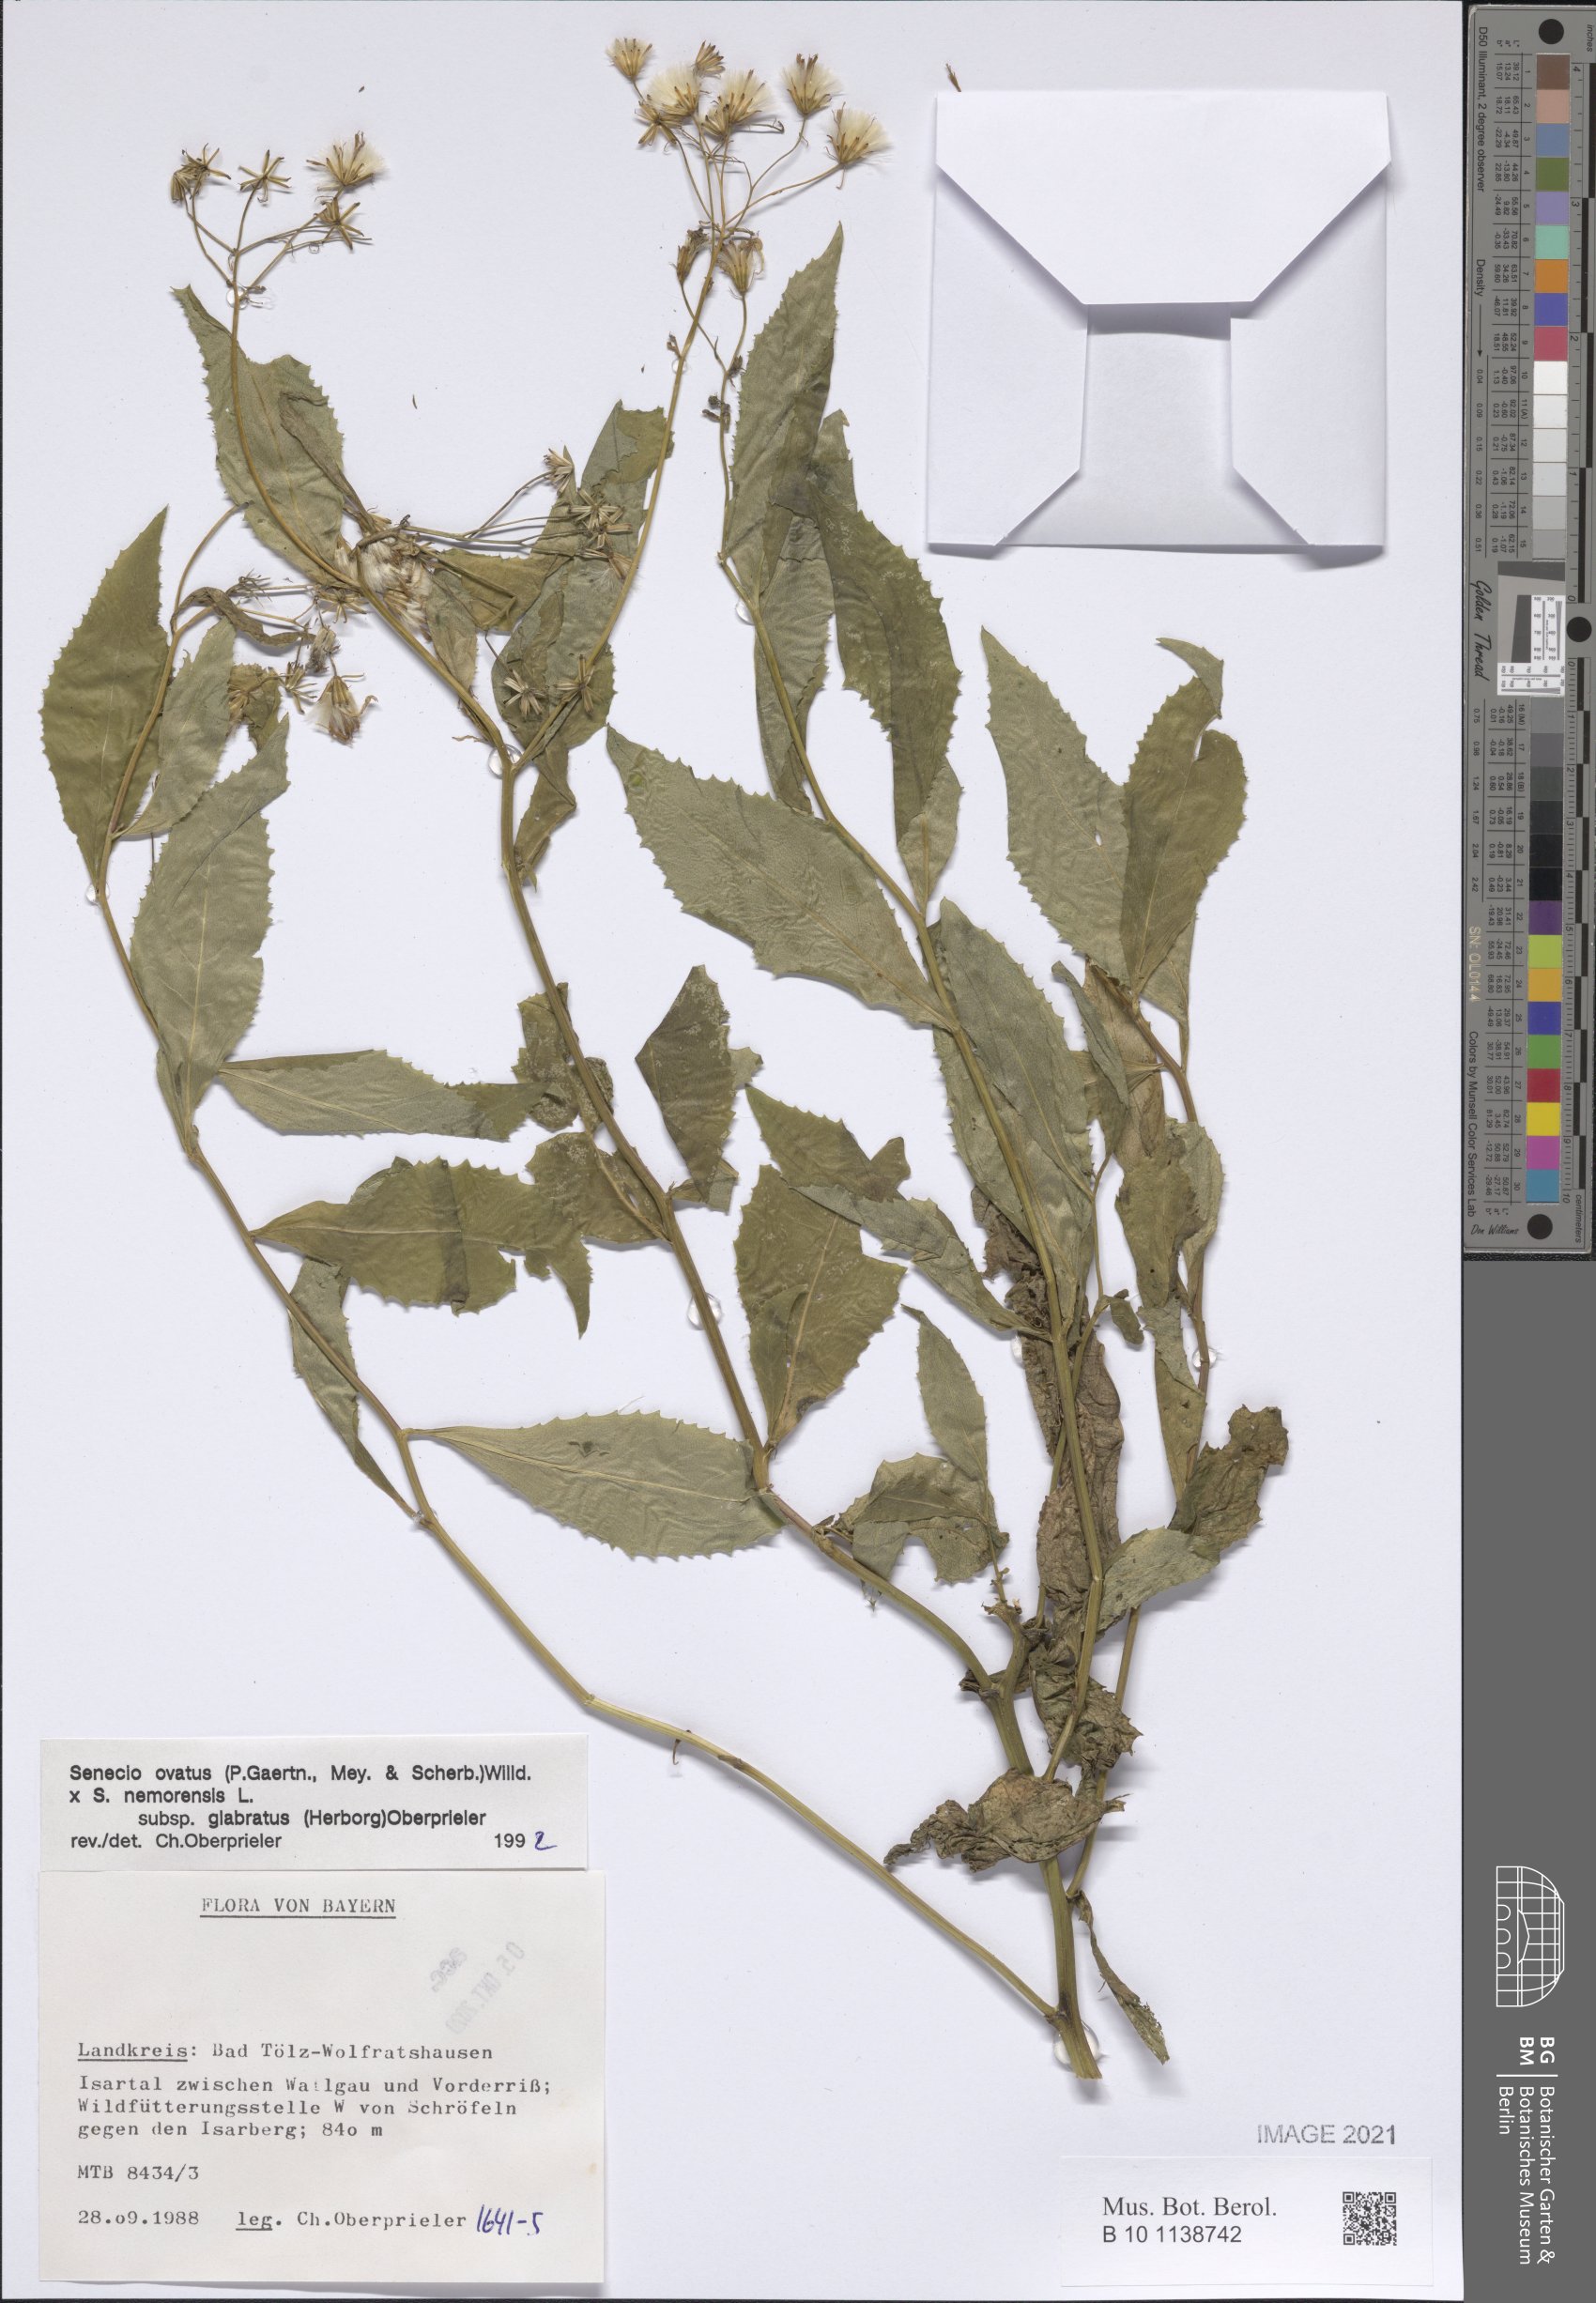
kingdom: Plantae
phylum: Tracheophyta
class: Magnoliopsida
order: Asterales
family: Asteraceae
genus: Senecio
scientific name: Senecio ovatus
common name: Wood ragwort
